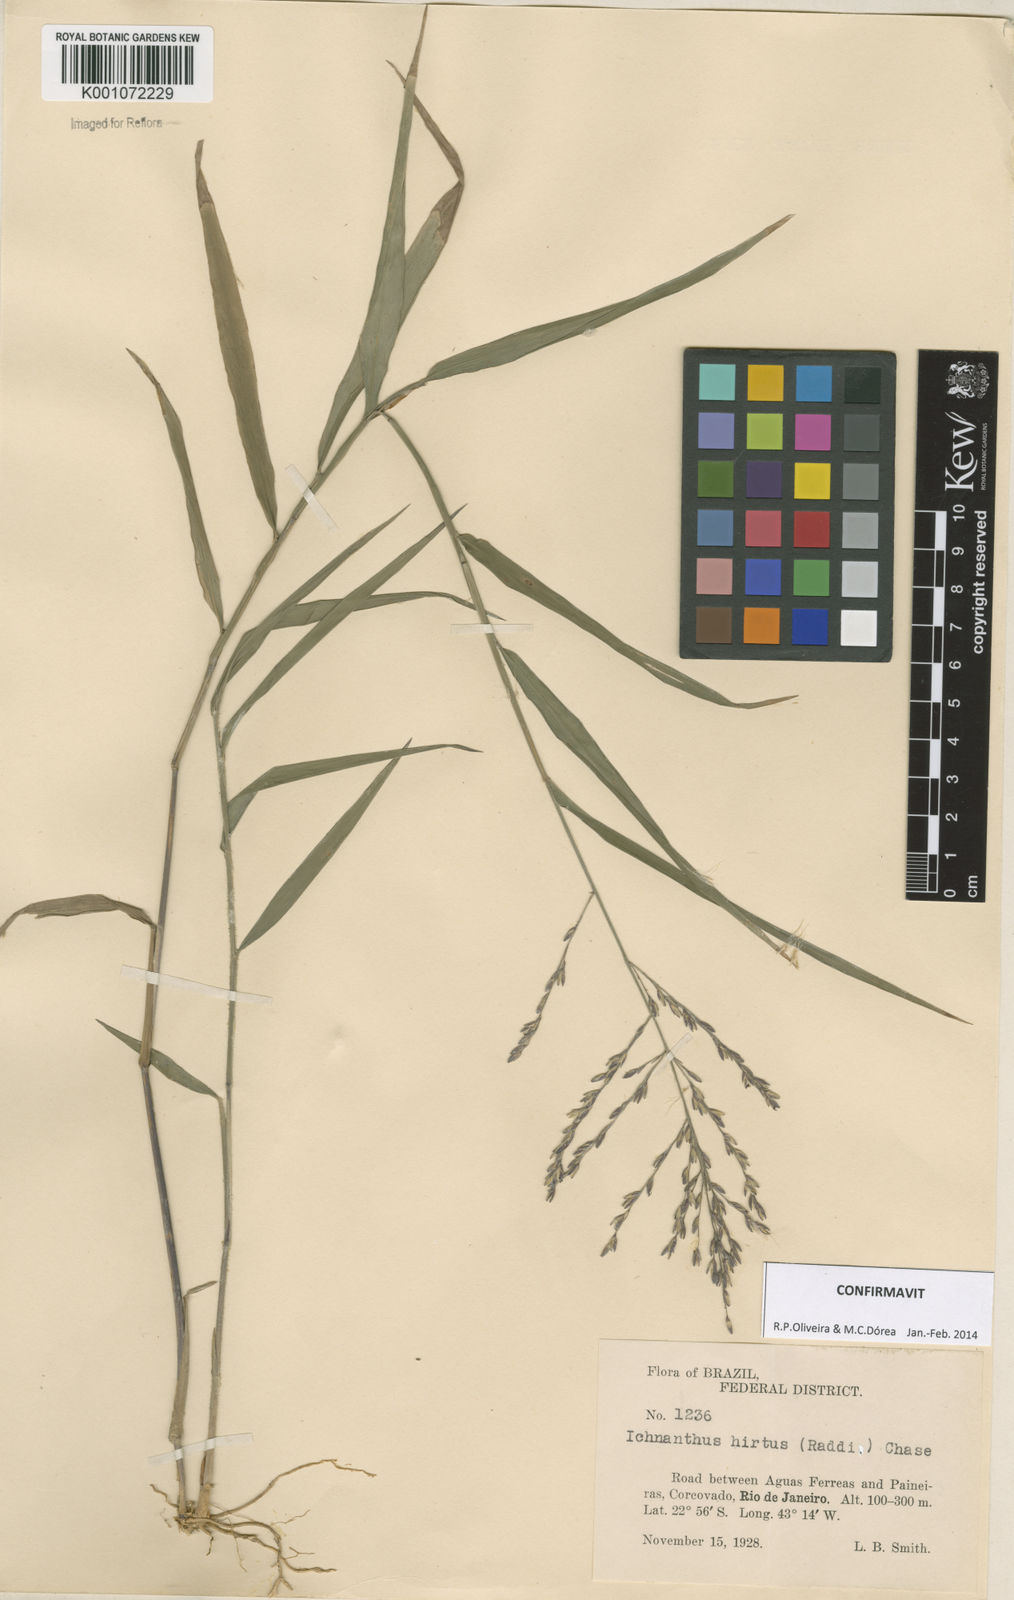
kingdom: Plantae
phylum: Tracheophyta
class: Liliopsida
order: Poales
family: Poaceae
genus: Ichnanthus
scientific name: Ichnanthus hirtus
